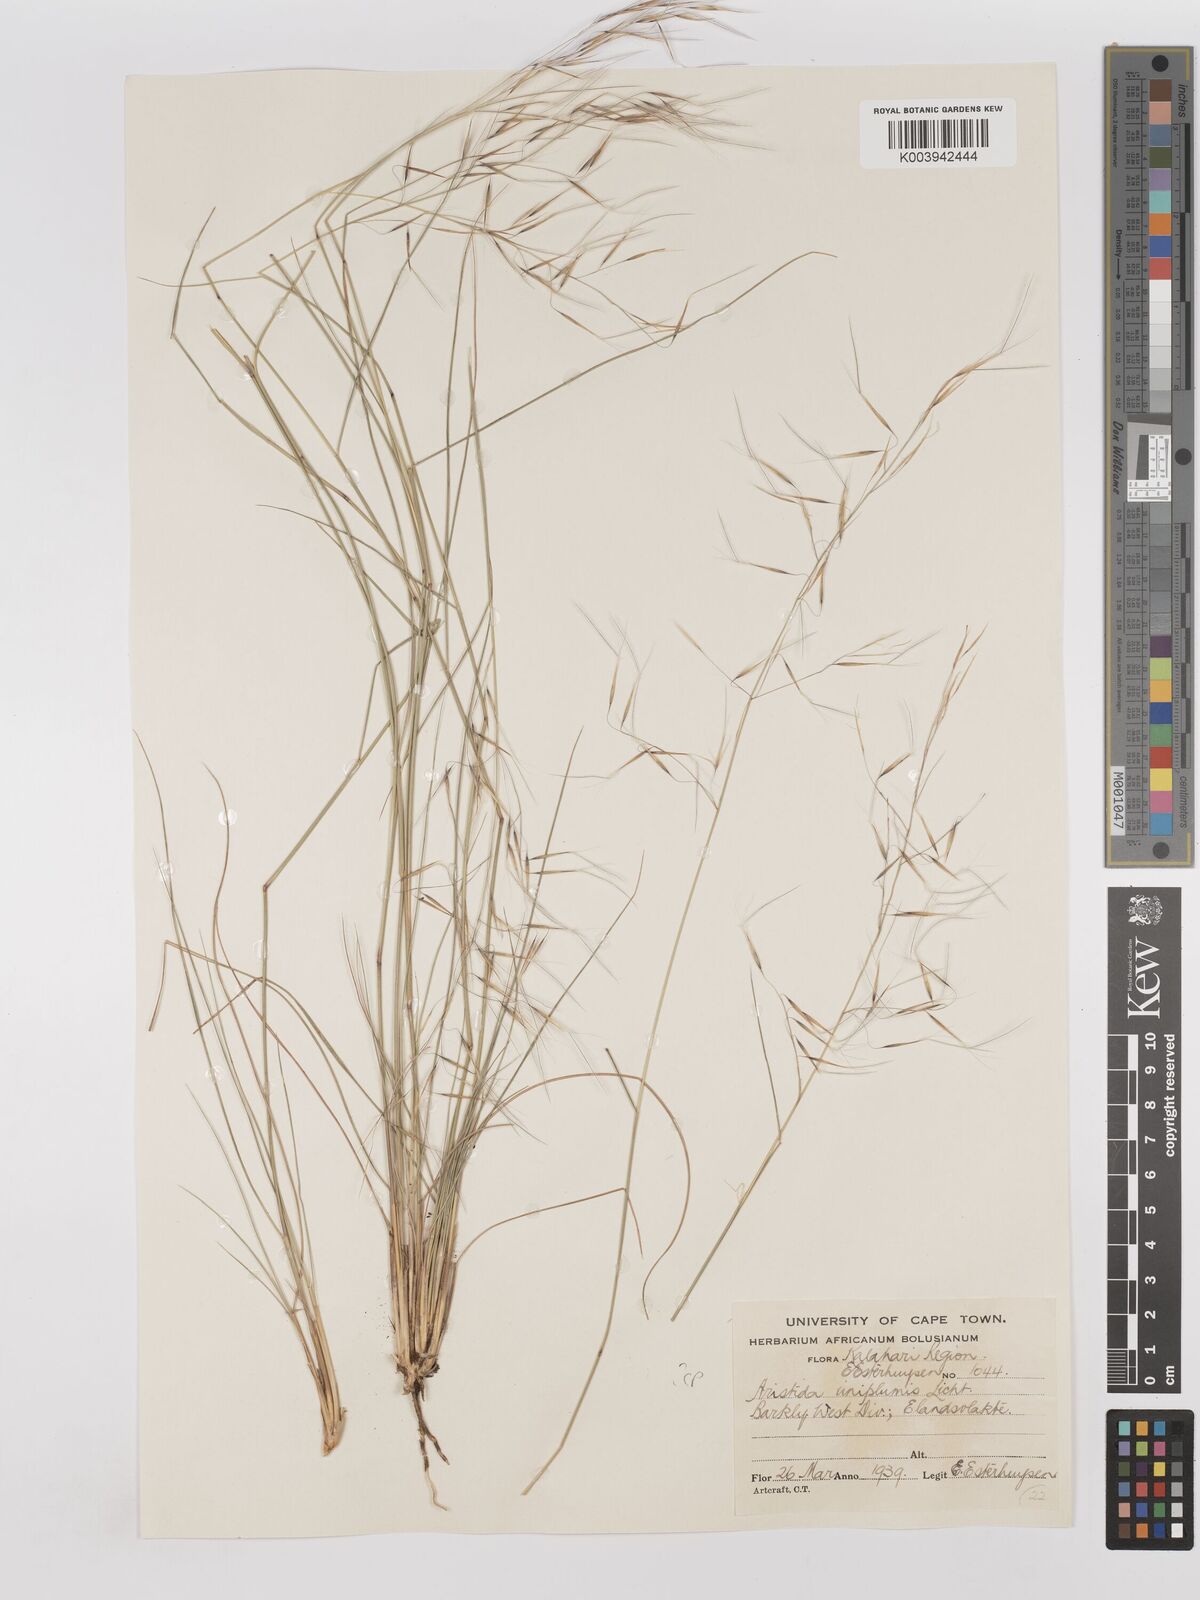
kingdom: Plantae
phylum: Tracheophyta
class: Liliopsida
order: Poales
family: Poaceae
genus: Stipagrostis
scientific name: Stipagrostis uniplumis
